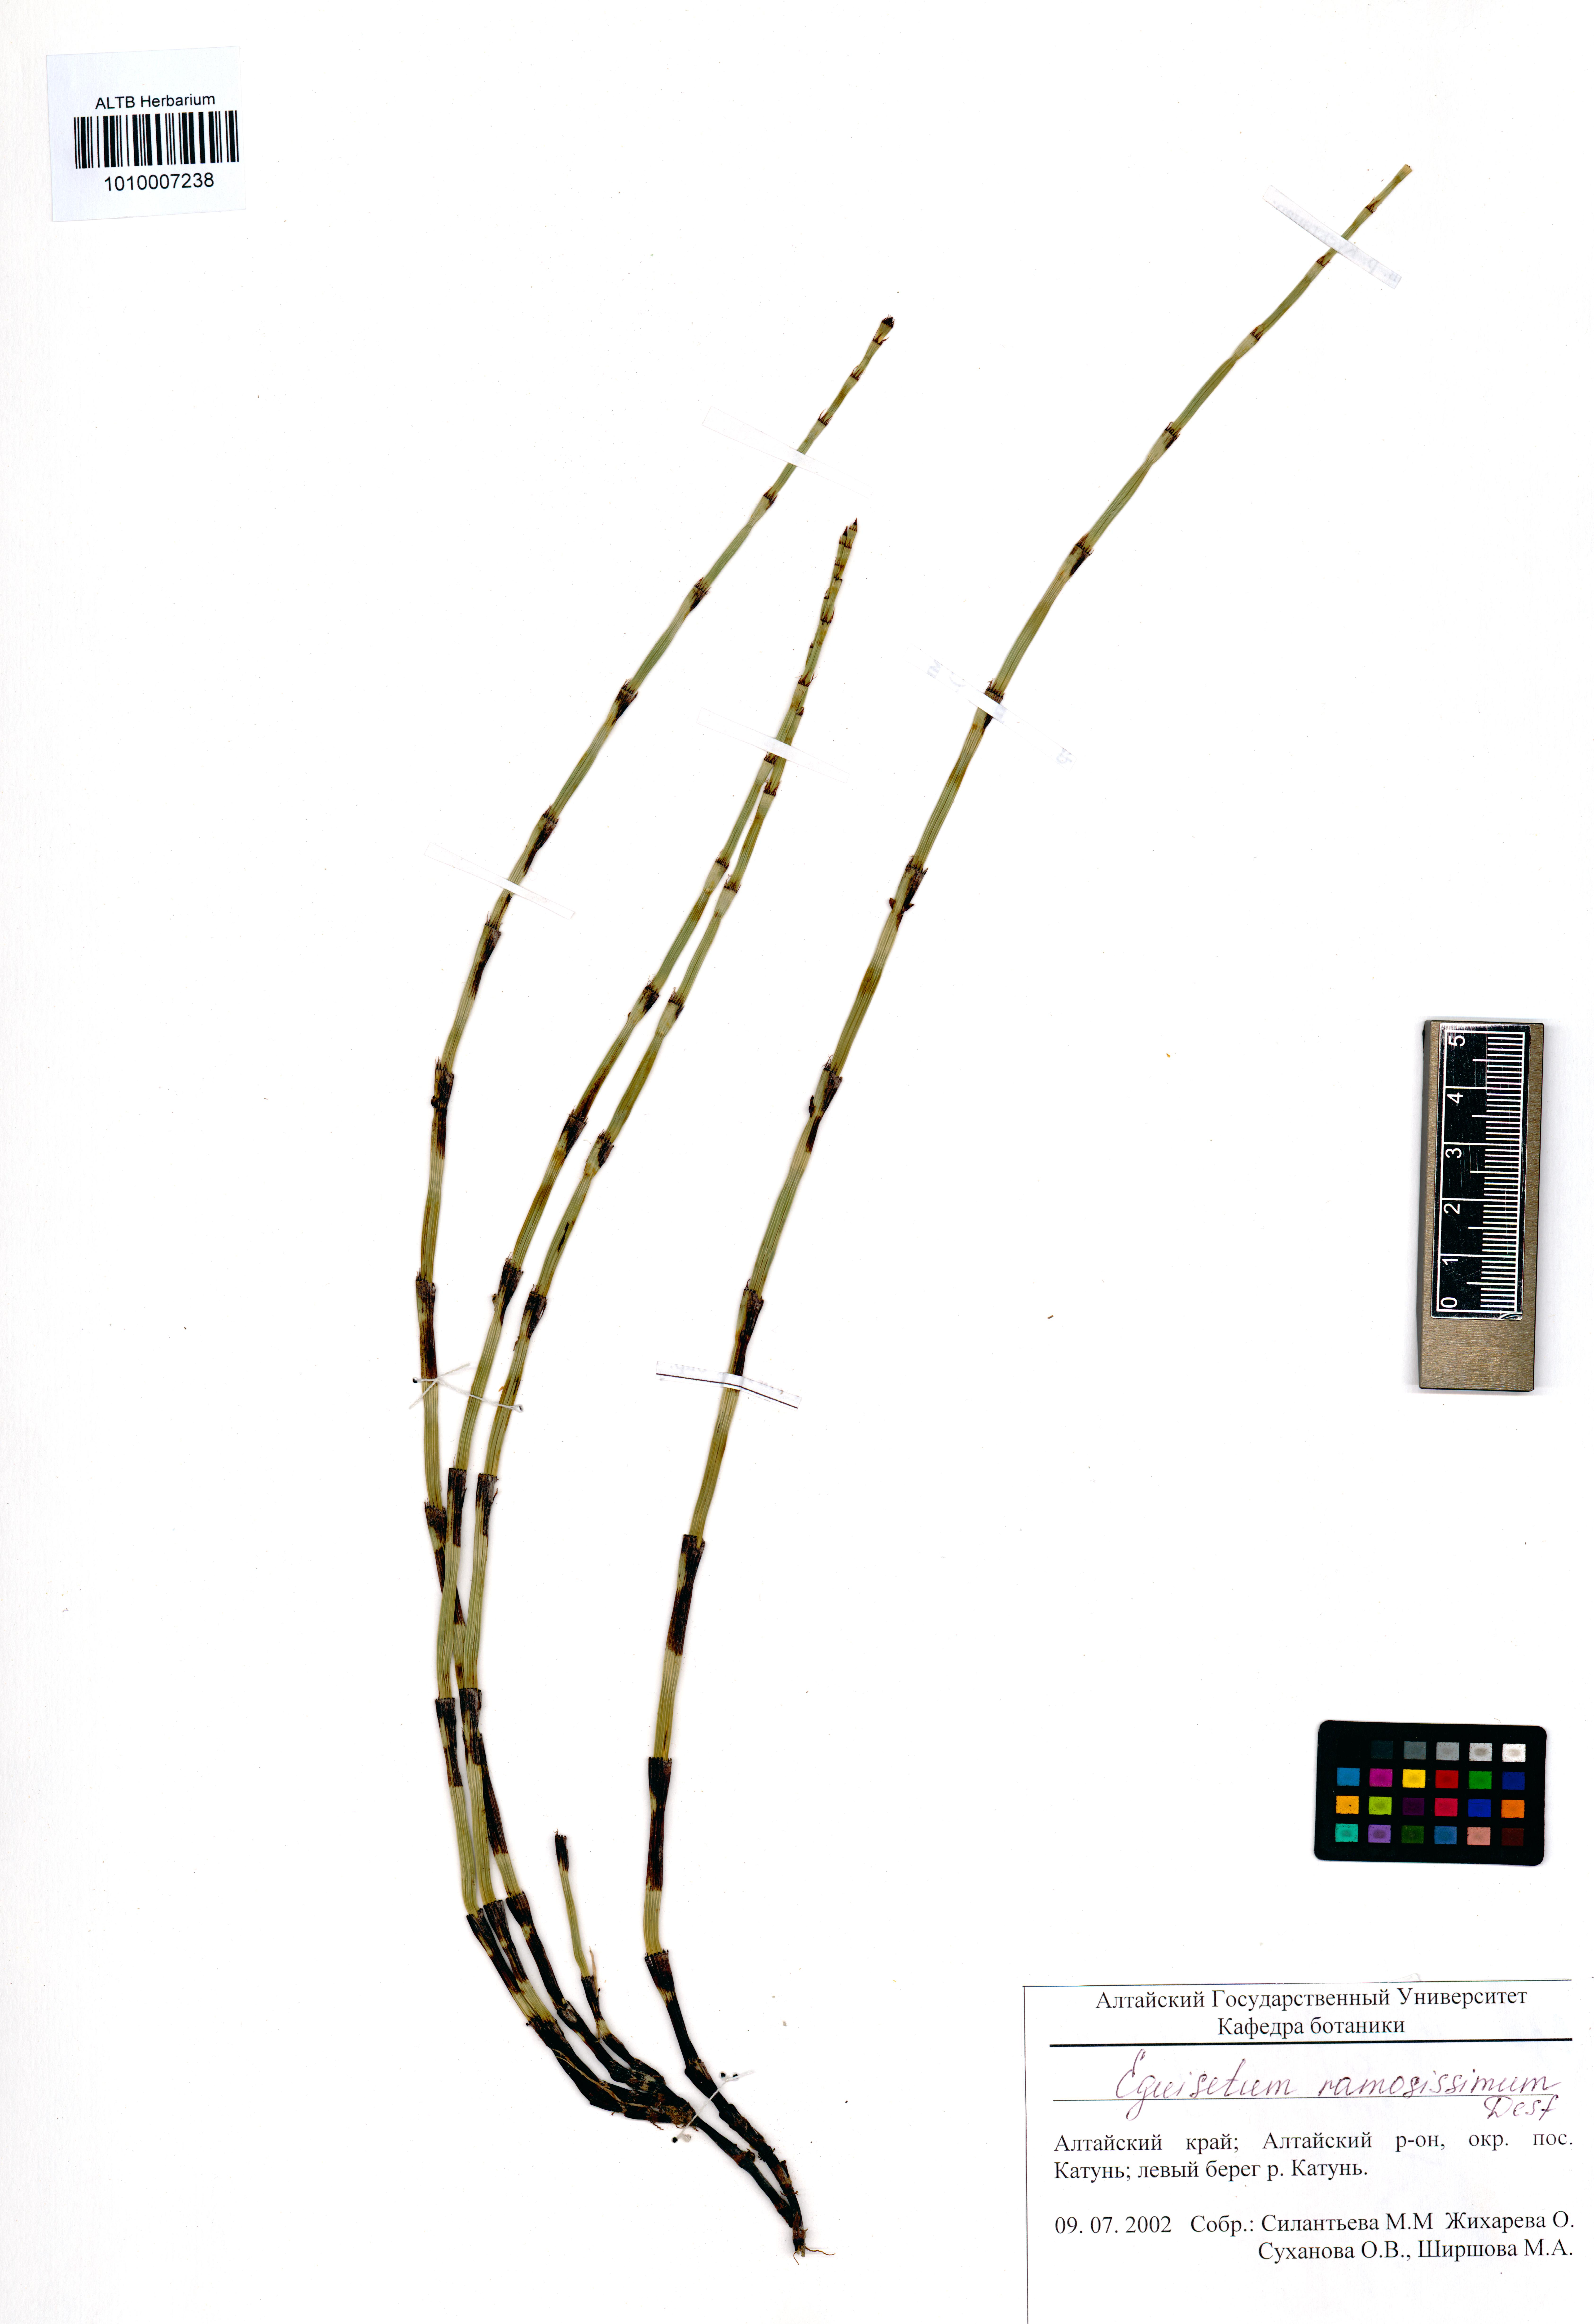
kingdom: Plantae
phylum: Tracheophyta
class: Polypodiopsida
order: Equisetales
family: Equisetaceae
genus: Equisetum
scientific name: Equisetum ramosissimum
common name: Branched horsetail
